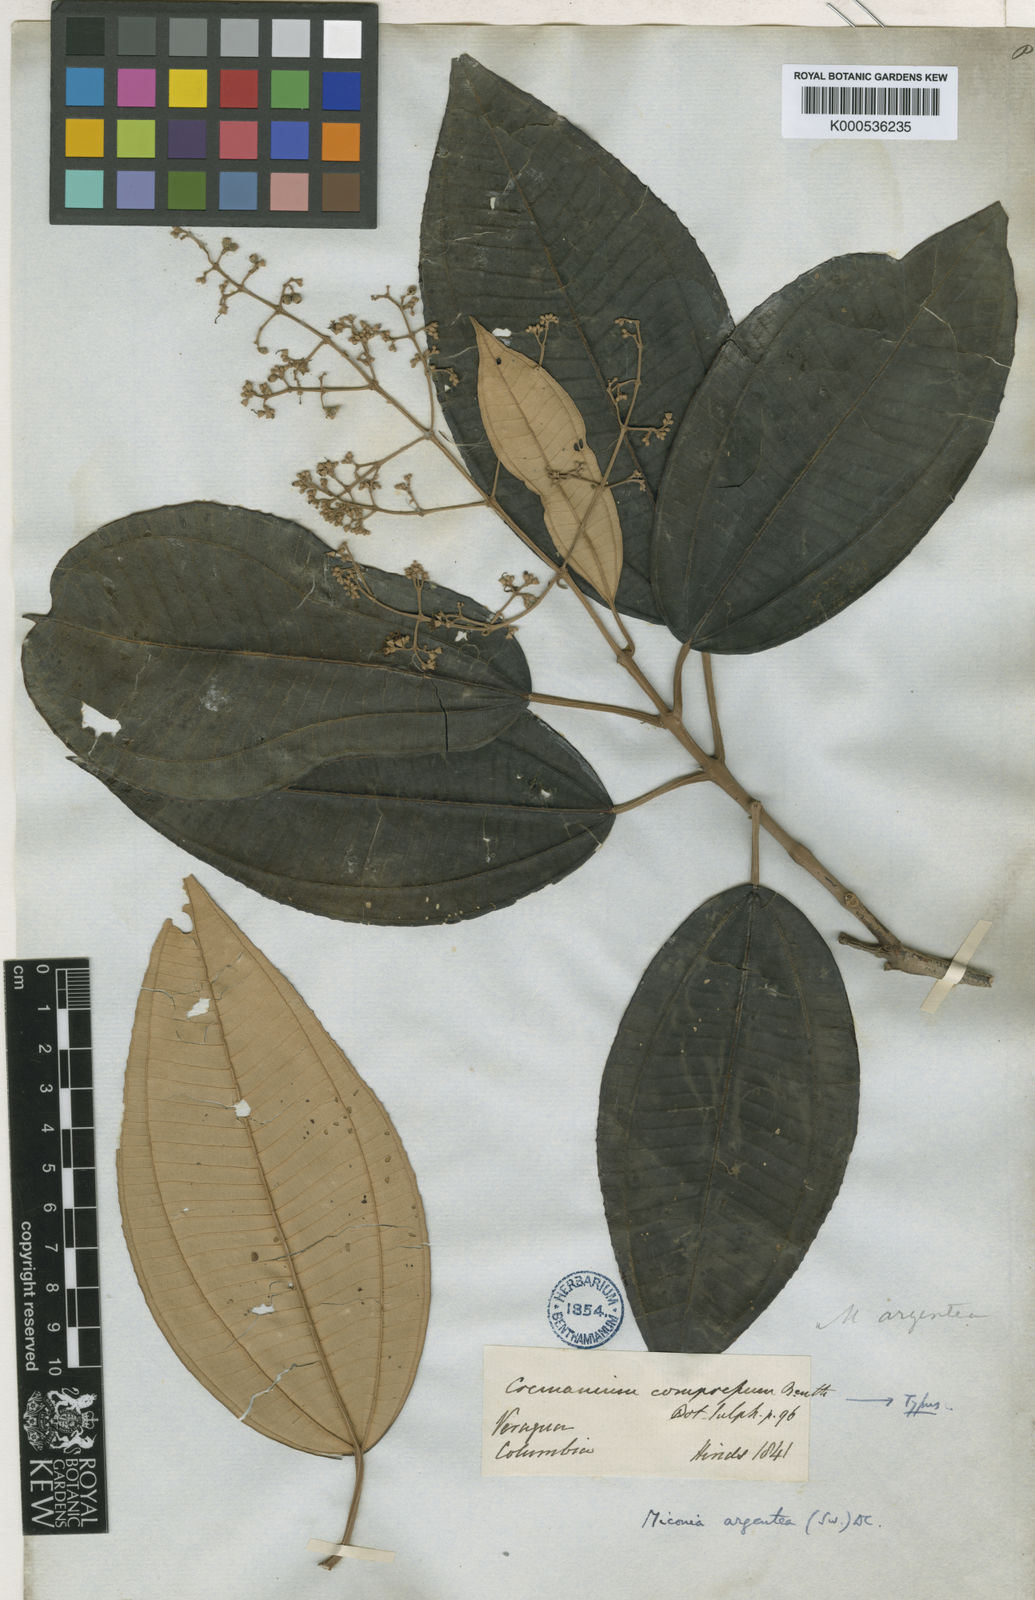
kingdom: Plantae
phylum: Tracheophyta
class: Magnoliopsida
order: Myrtales
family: Melastomataceae
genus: Miconia
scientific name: Miconia argentea
